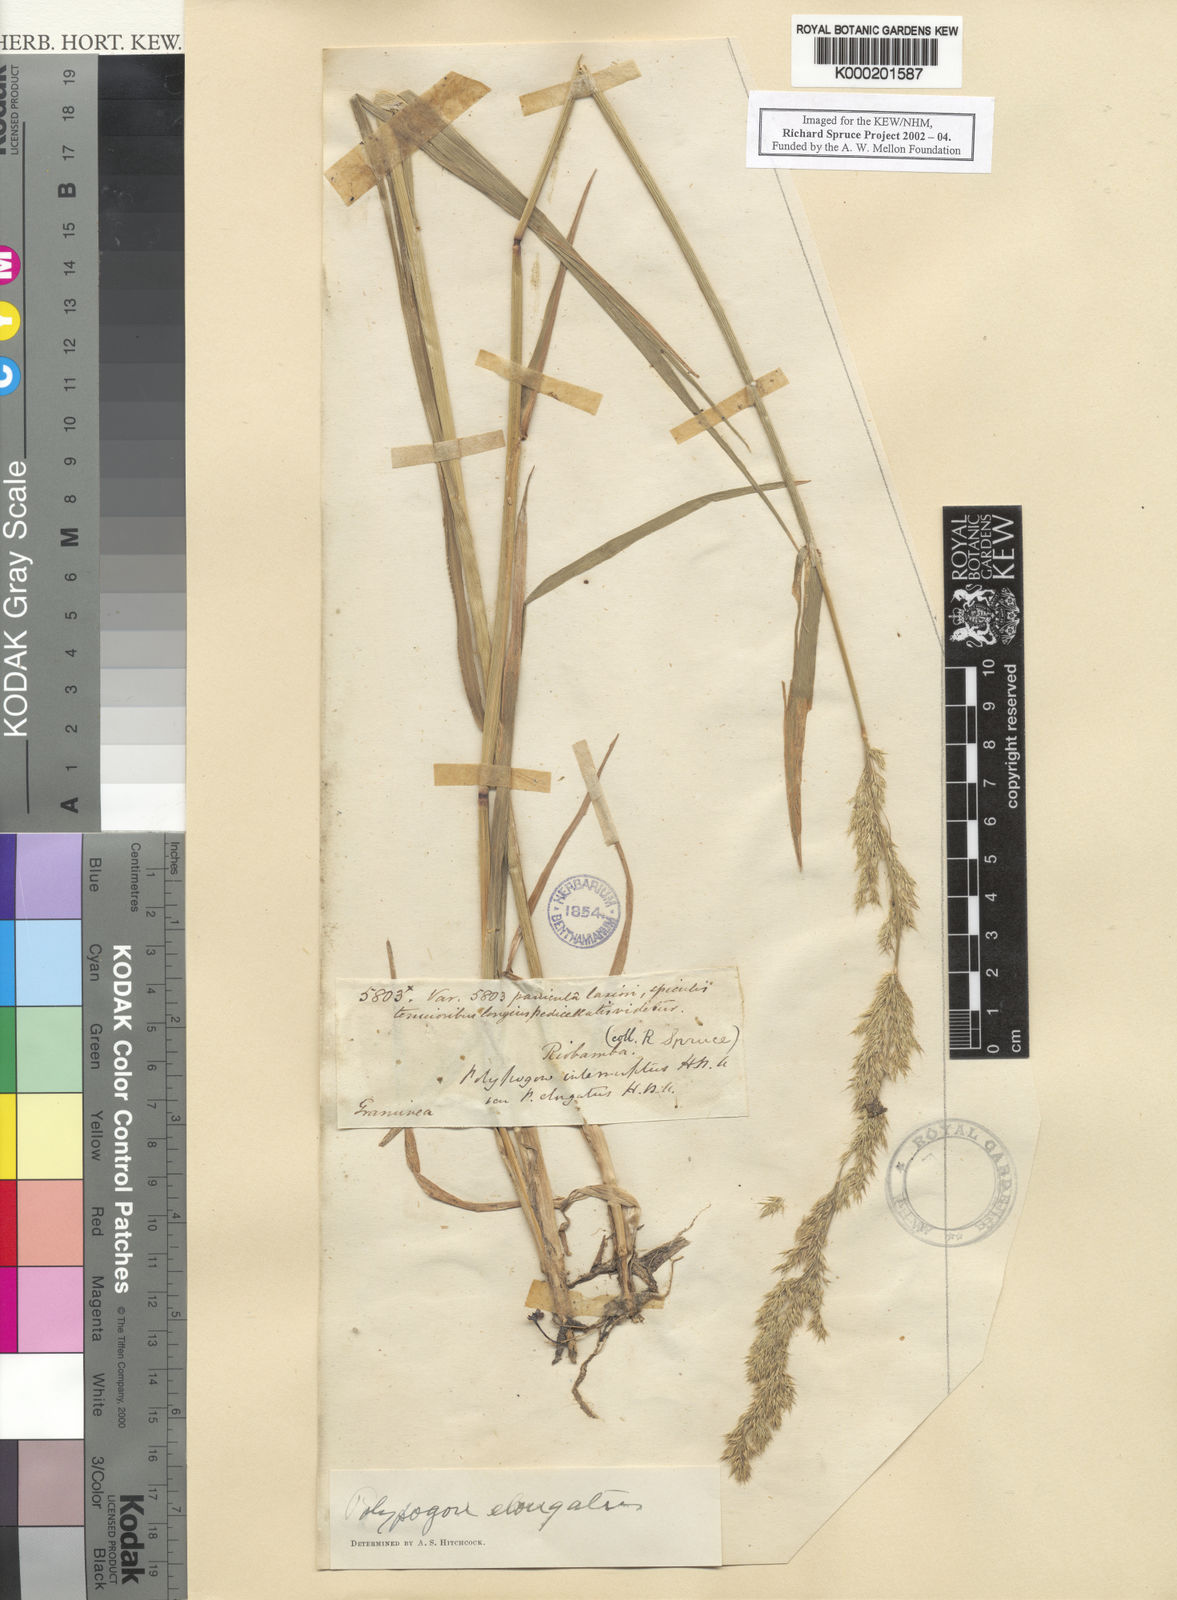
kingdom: Plantae
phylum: Tracheophyta
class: Liliopsida
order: Poales
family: Poaceae
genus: Polypogon
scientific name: Polypogon elongatus
